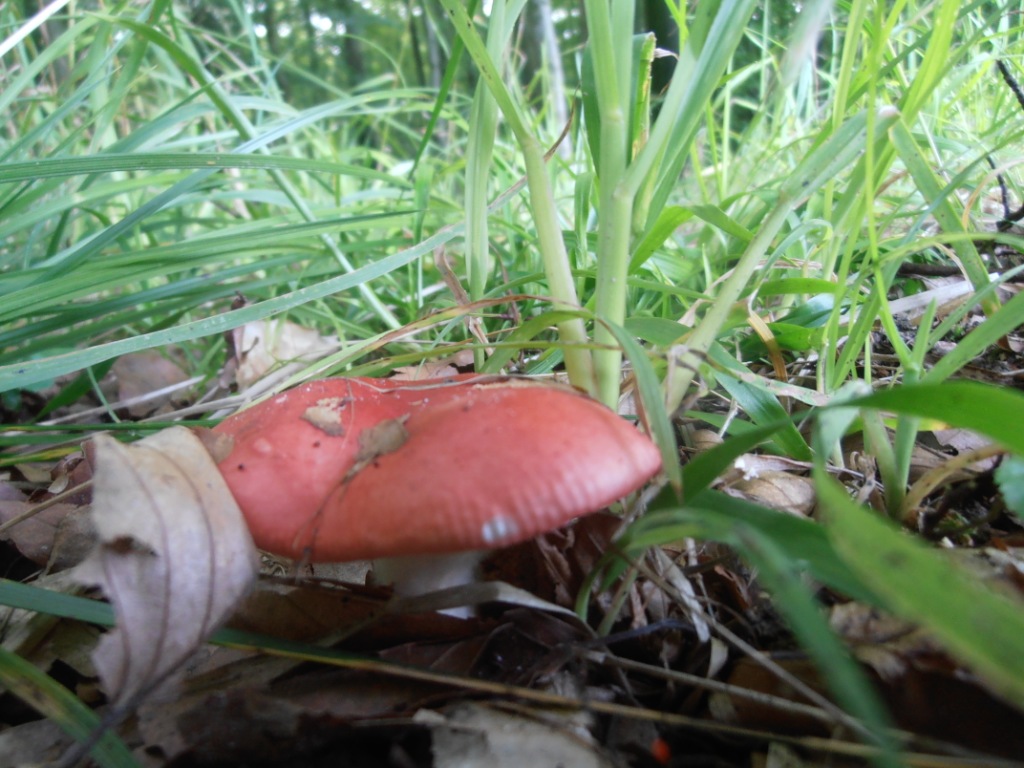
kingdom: Fungi
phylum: Basidiomycota
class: Agaricomycetes
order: Russulales
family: Russulaceae
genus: Russula
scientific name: Russula nobilis
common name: lille gift-skørhat
